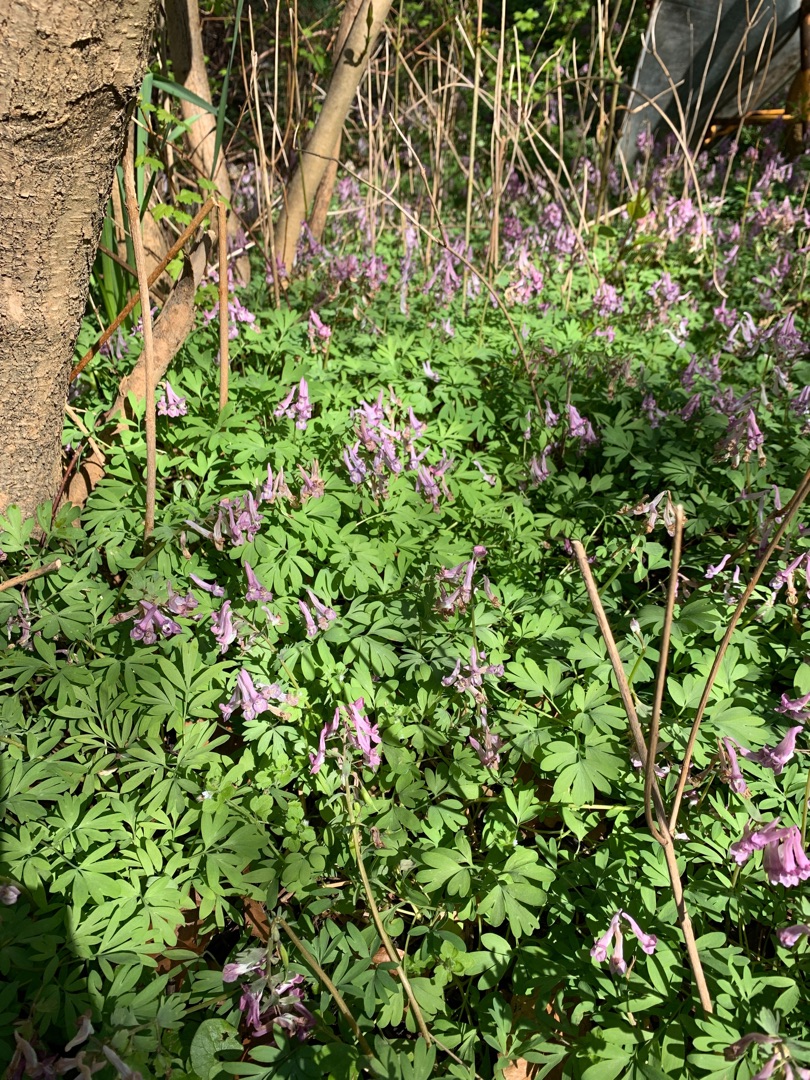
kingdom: Plantae
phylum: Tracheophyta
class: Magnoliopsida
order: Ranunculales
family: Papaveraceae
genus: Corydalis
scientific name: Corydalis solida
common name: Langstilket lærkespore
